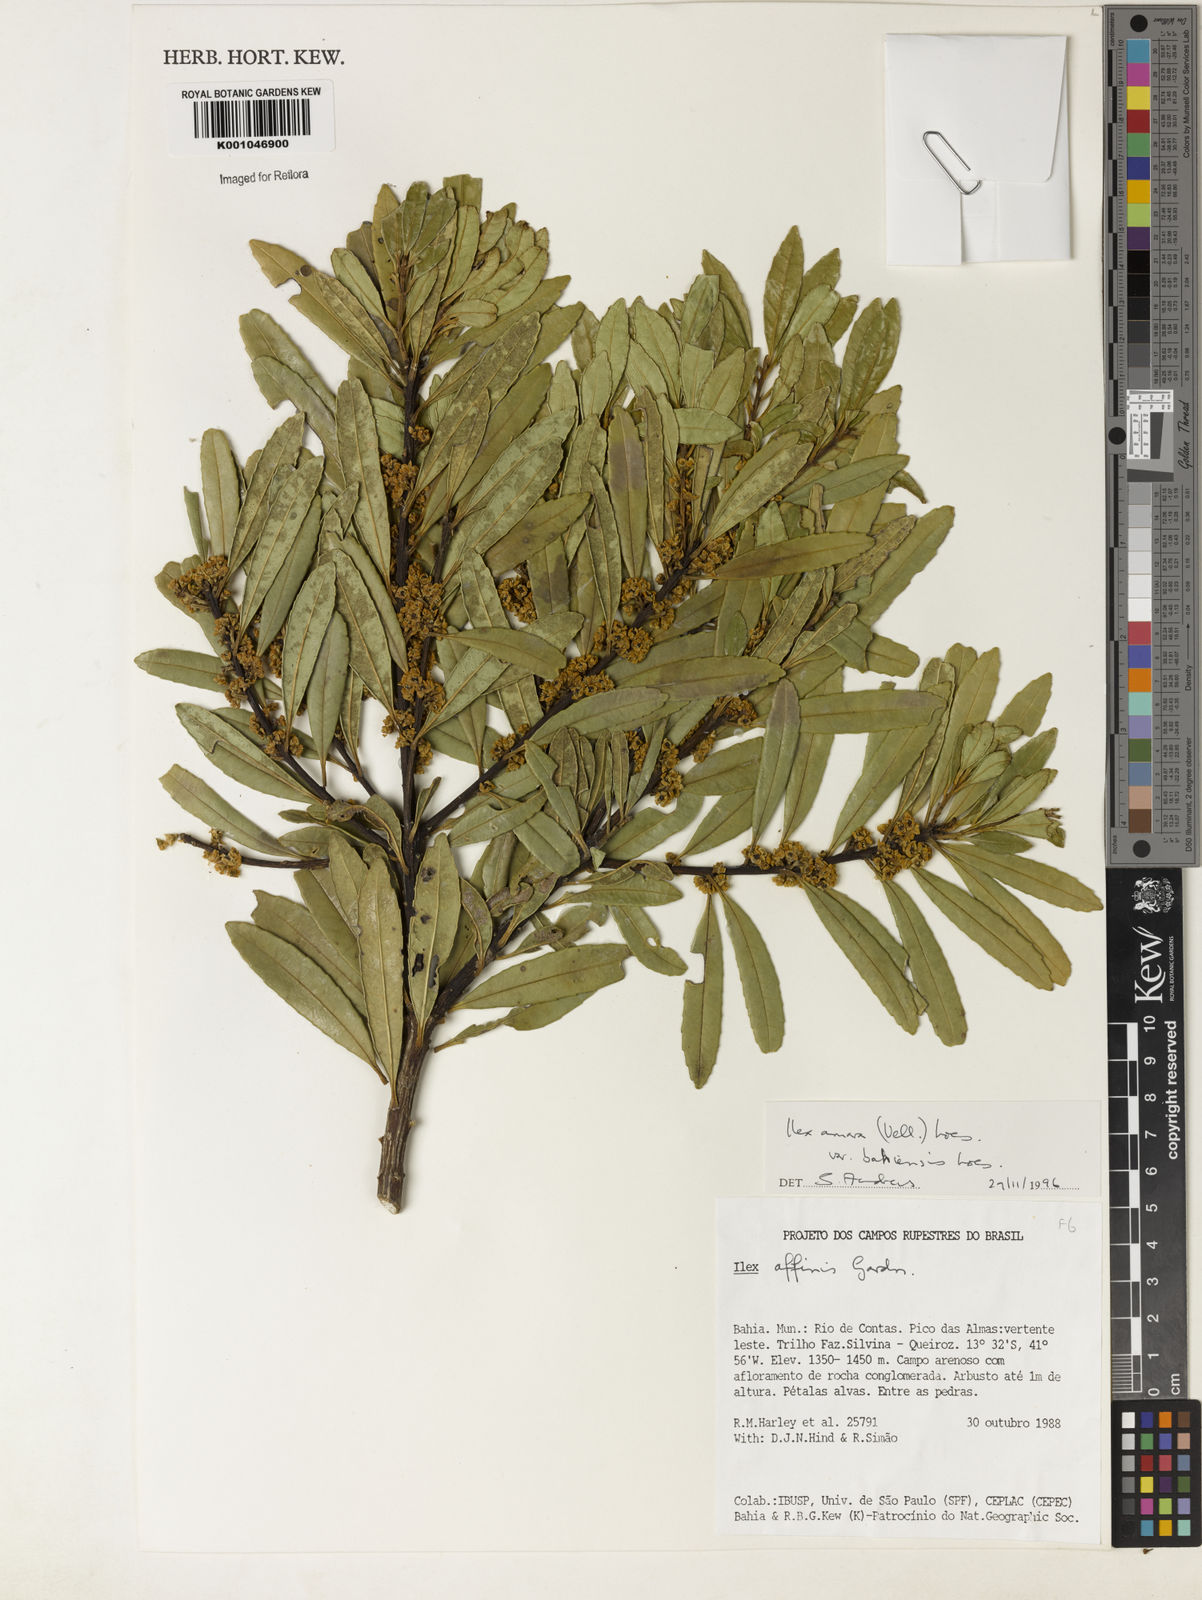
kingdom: Plantae
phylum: Tracheophyta
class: Magnoliopsida
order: Aquifoliales
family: Aquifoliaceae
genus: Ilex
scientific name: Ilex dumosa
